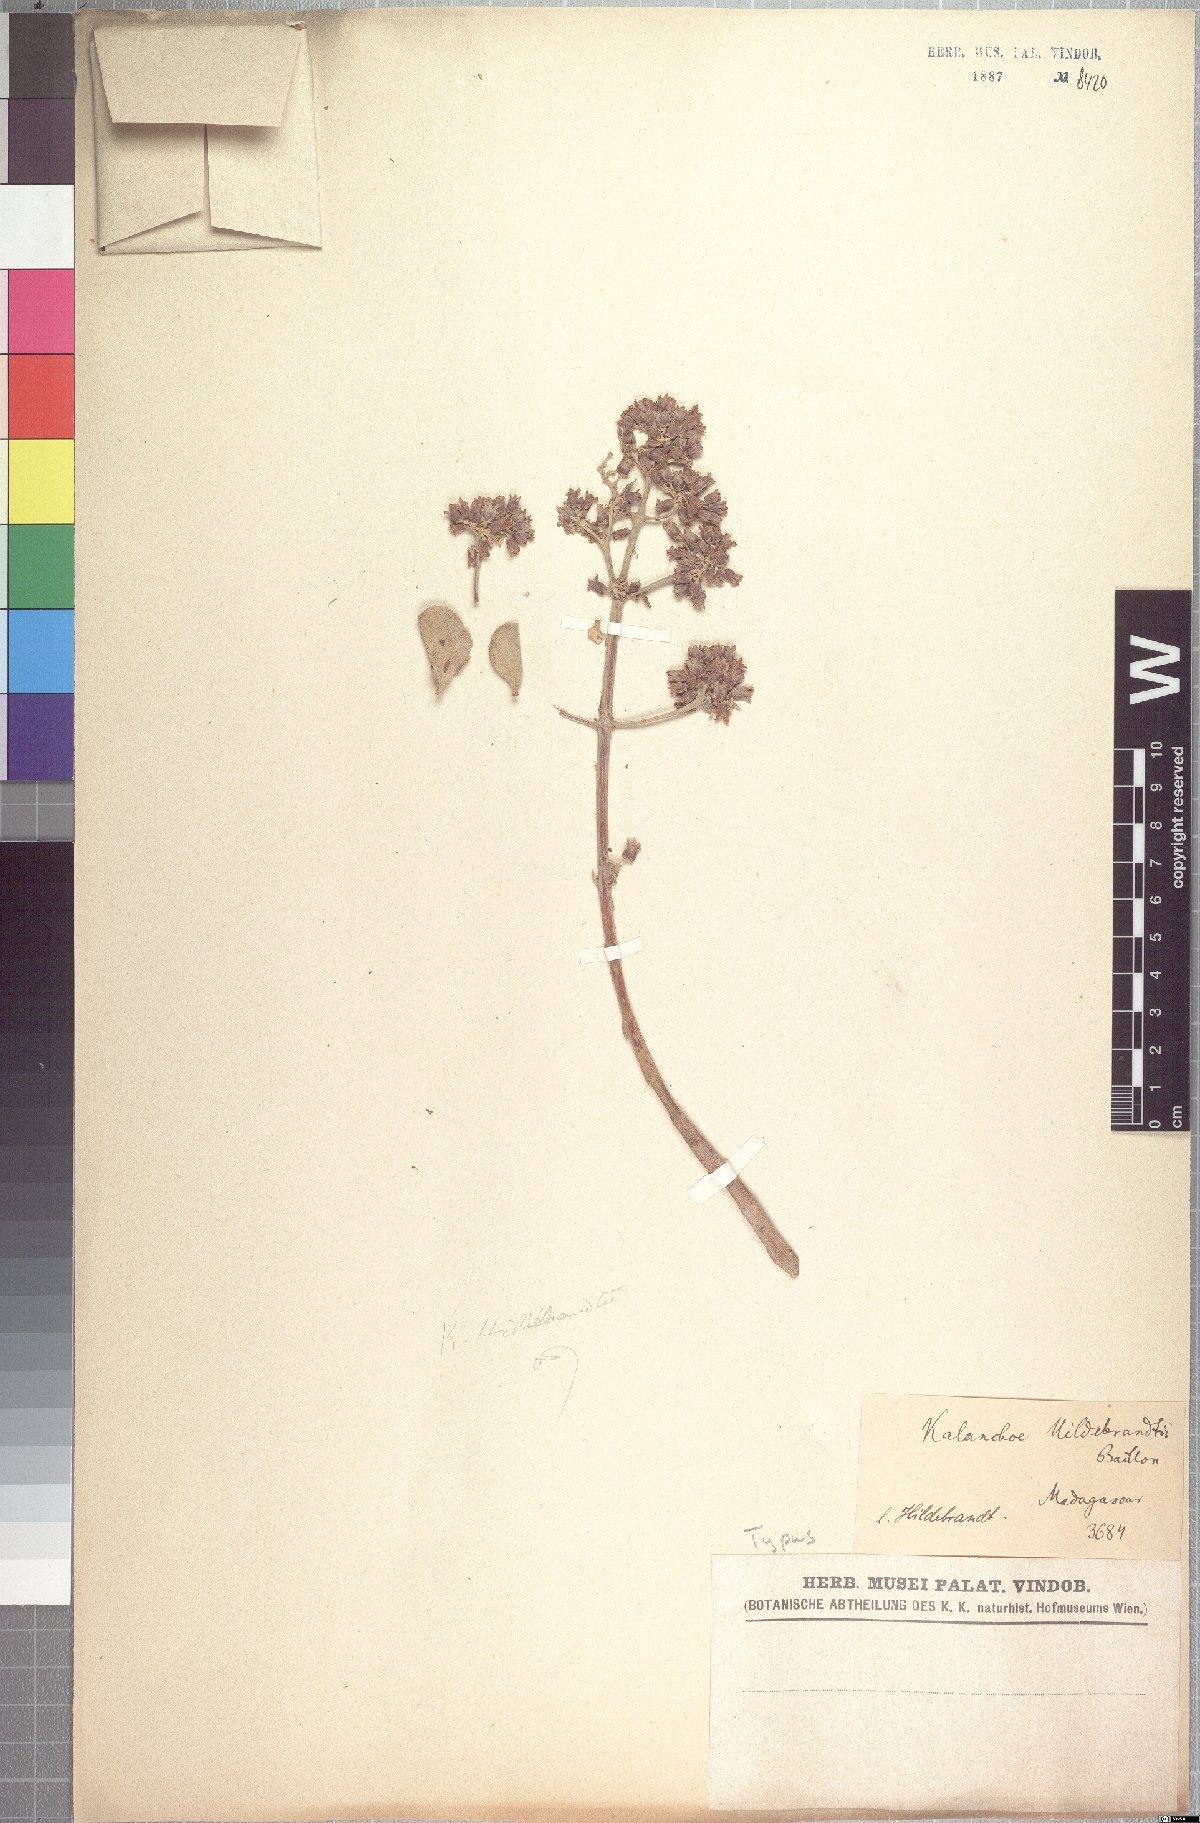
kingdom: Plantae
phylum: Tracheophyta
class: Magnoliopsida
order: Saxifragales
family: Crassulaceae
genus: Kalanchoe
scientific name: Kalanchoe hildebrandtii
